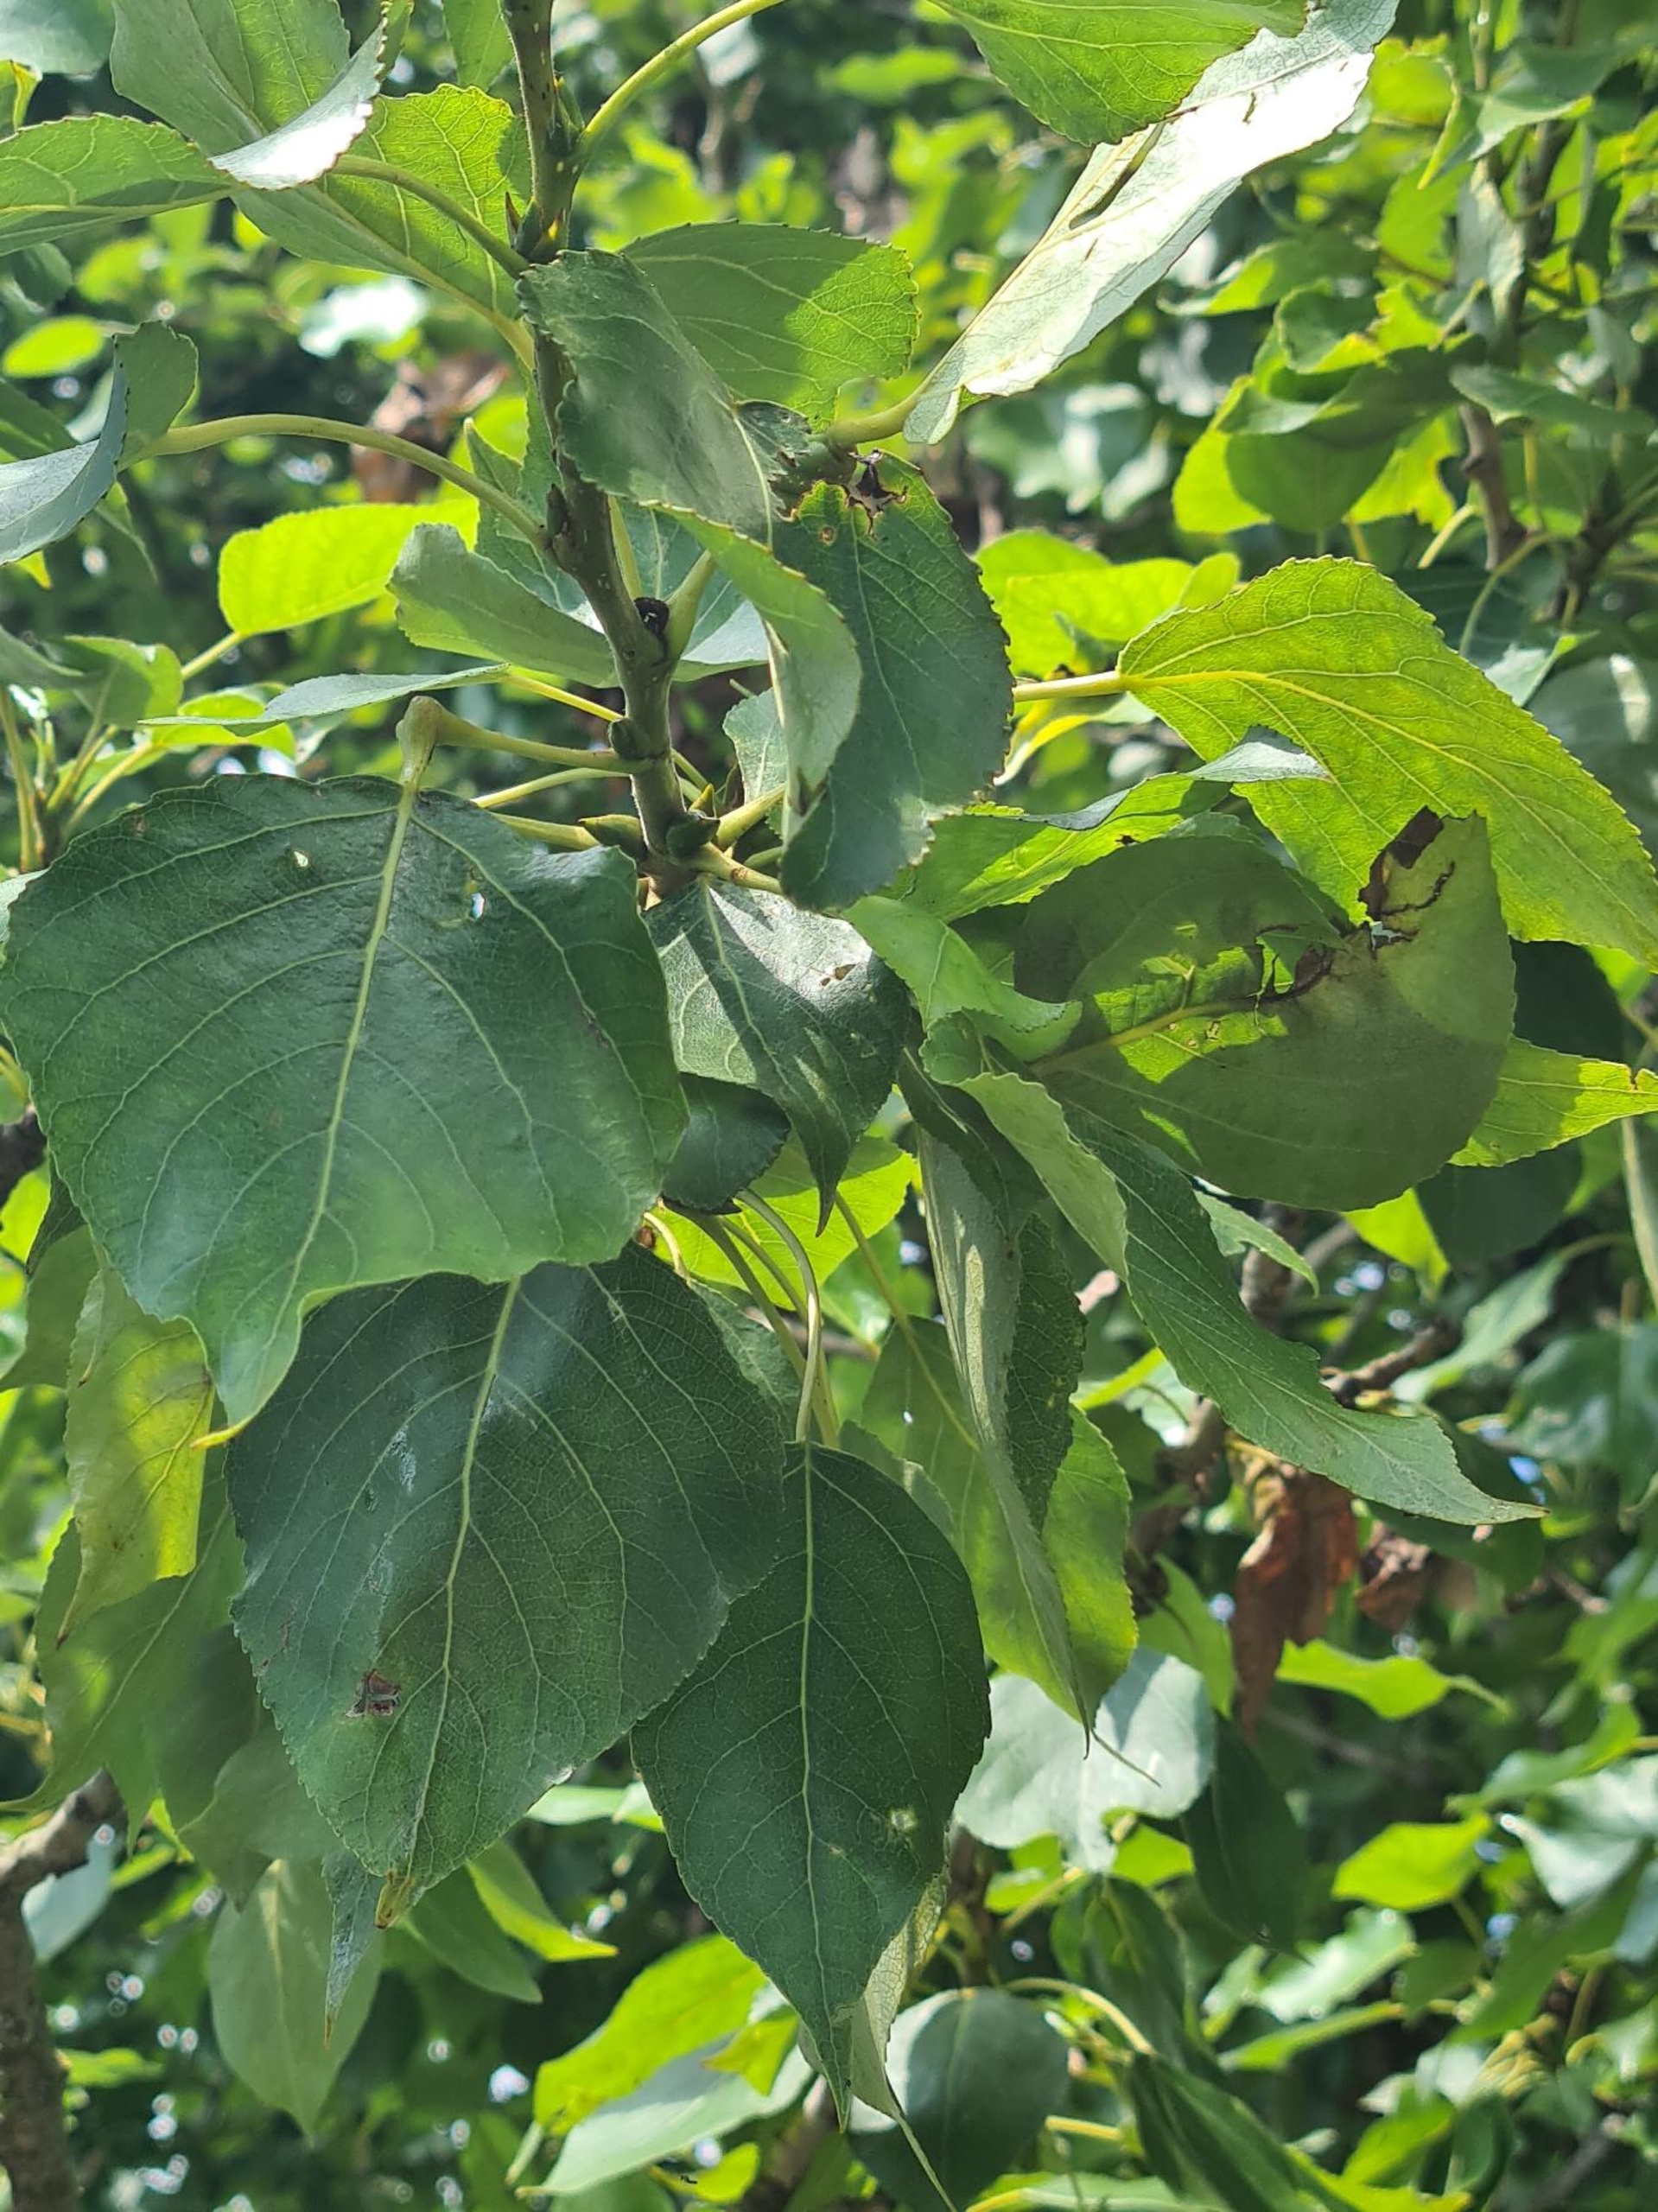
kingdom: Plantae
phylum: Tracheophyta
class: Magnoliopsida
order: Malpighiales
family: Salicaceae
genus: Populus
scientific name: Populus trichocarpa
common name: Vestamerikansk poppel
